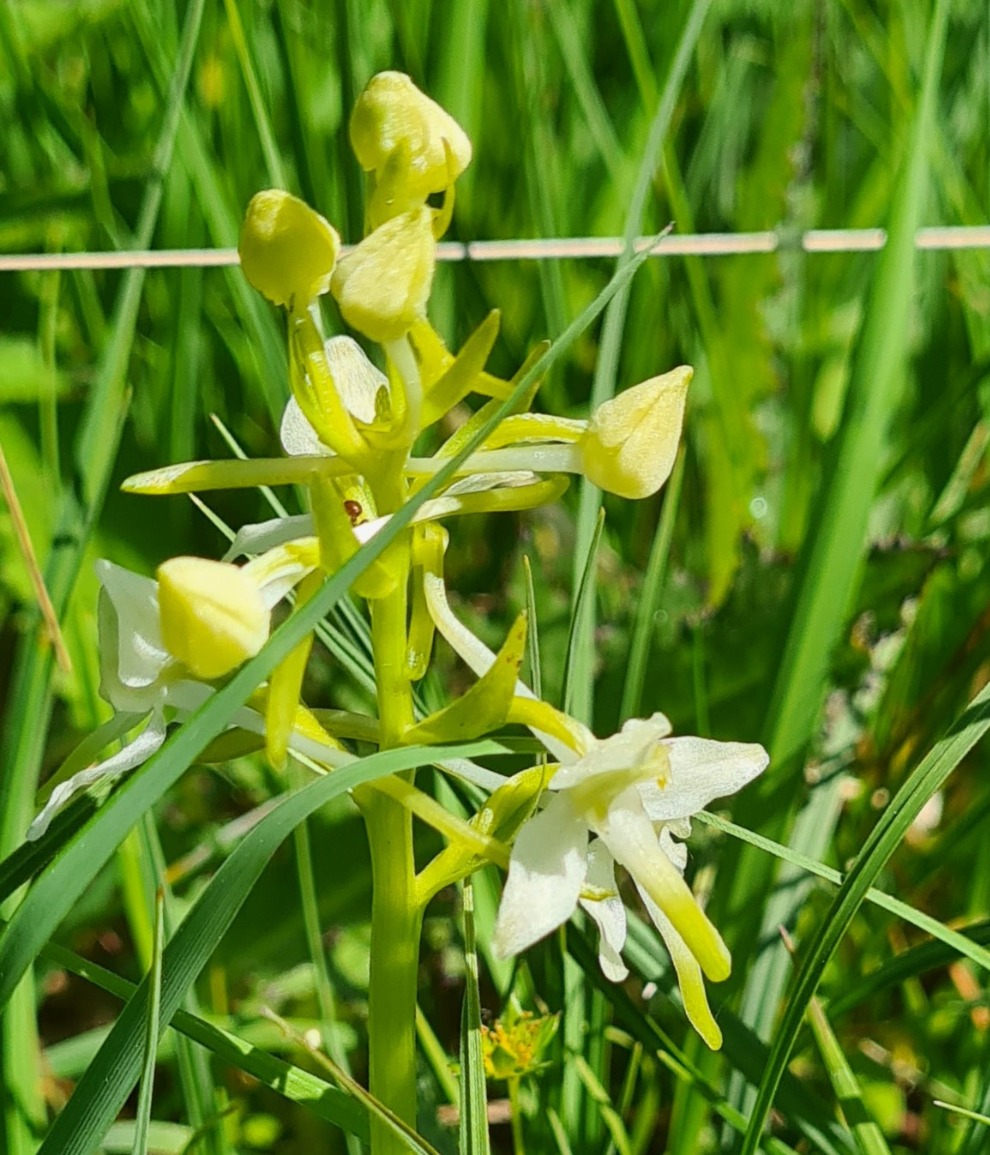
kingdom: Plantae
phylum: Tracheophyta
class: Liliopsida
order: Asparagales
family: Orchidaceae
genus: Platanthera
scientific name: Platanthera chlorantha
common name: Skov-gøgelilje
